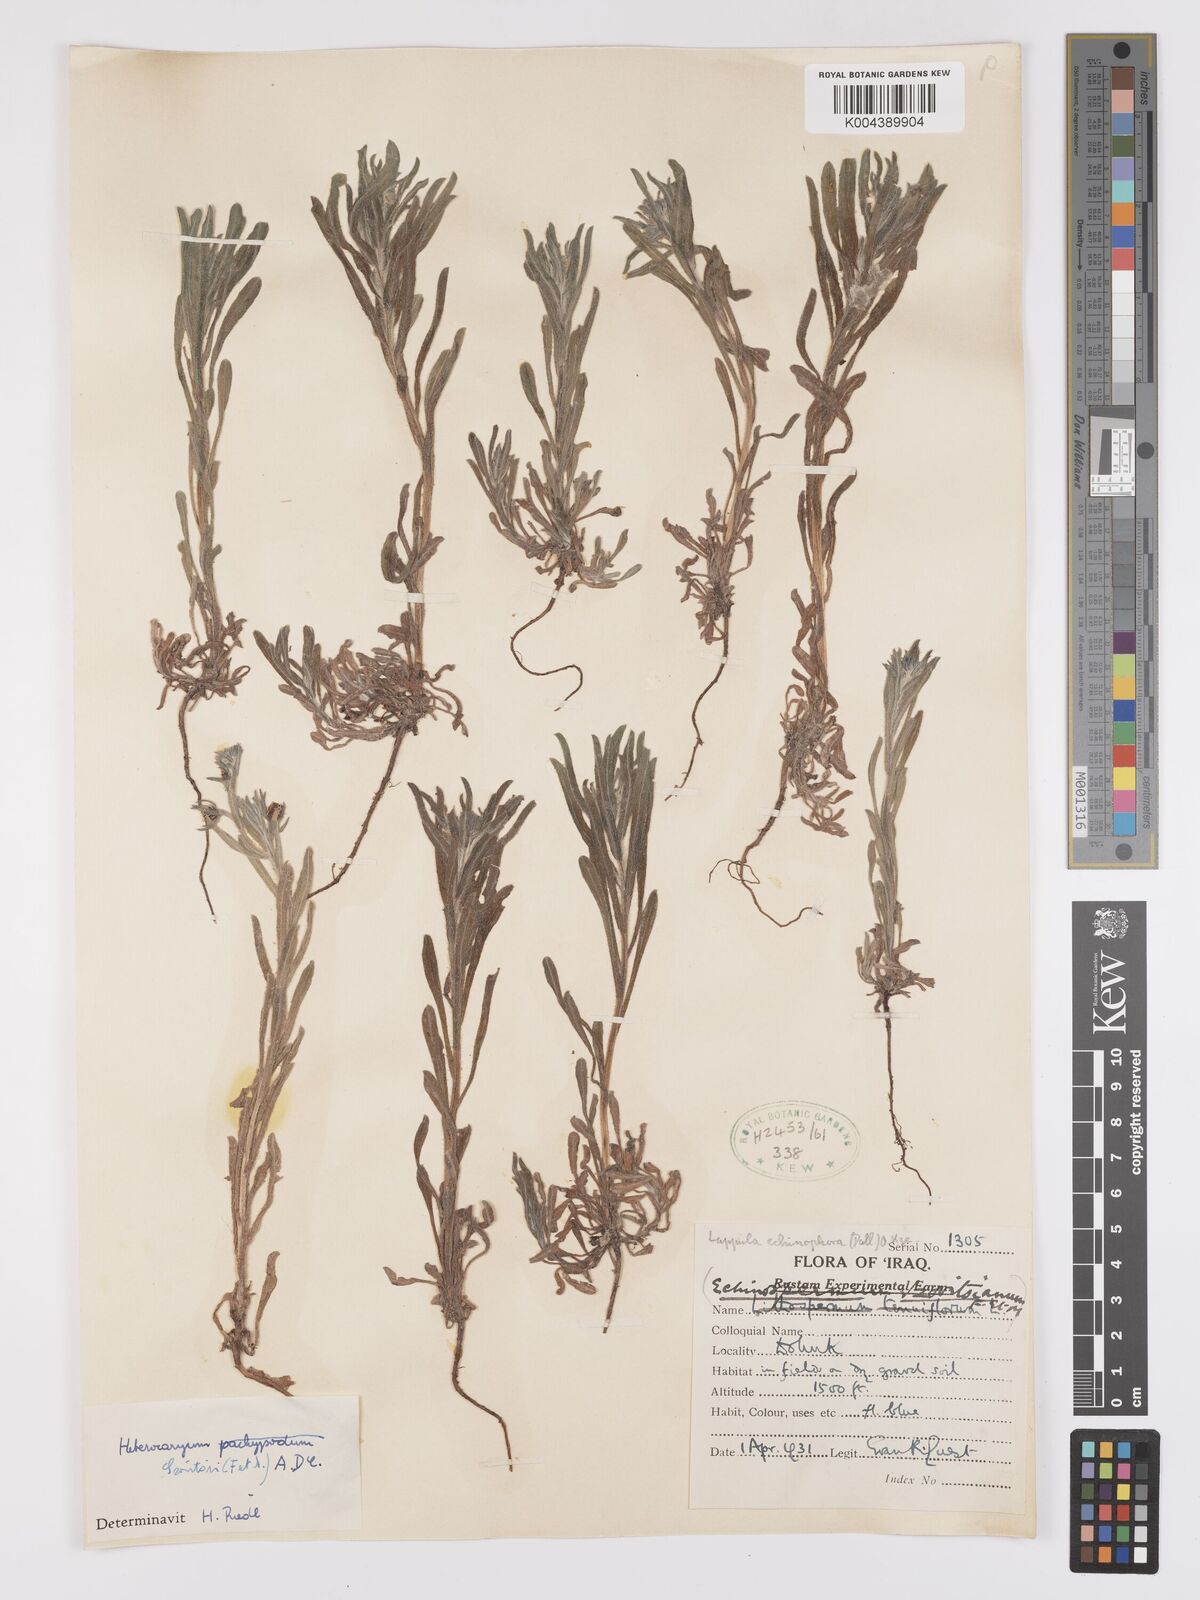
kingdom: Plantae
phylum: Tracheophyta
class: Magnoliopsida
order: Boraginales
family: Boraginaceae
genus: Pseudoheterocaryum
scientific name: Pseudoheterocaryum szovitsianum
